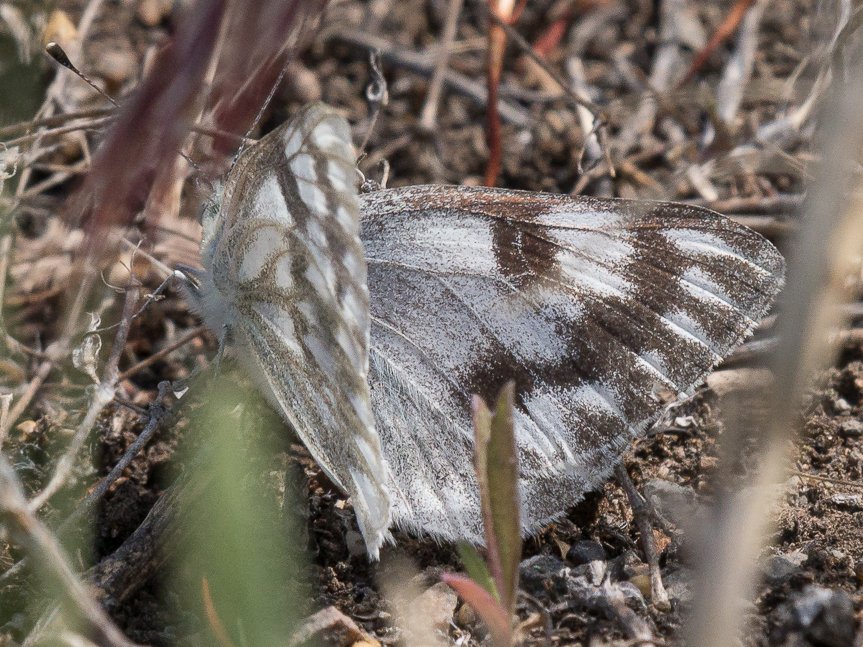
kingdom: Animalia
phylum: Arthropoda
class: Insecta
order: Lepidoptera
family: Pieridae
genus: Pontia
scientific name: Pontia occidentalis
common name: Western White
